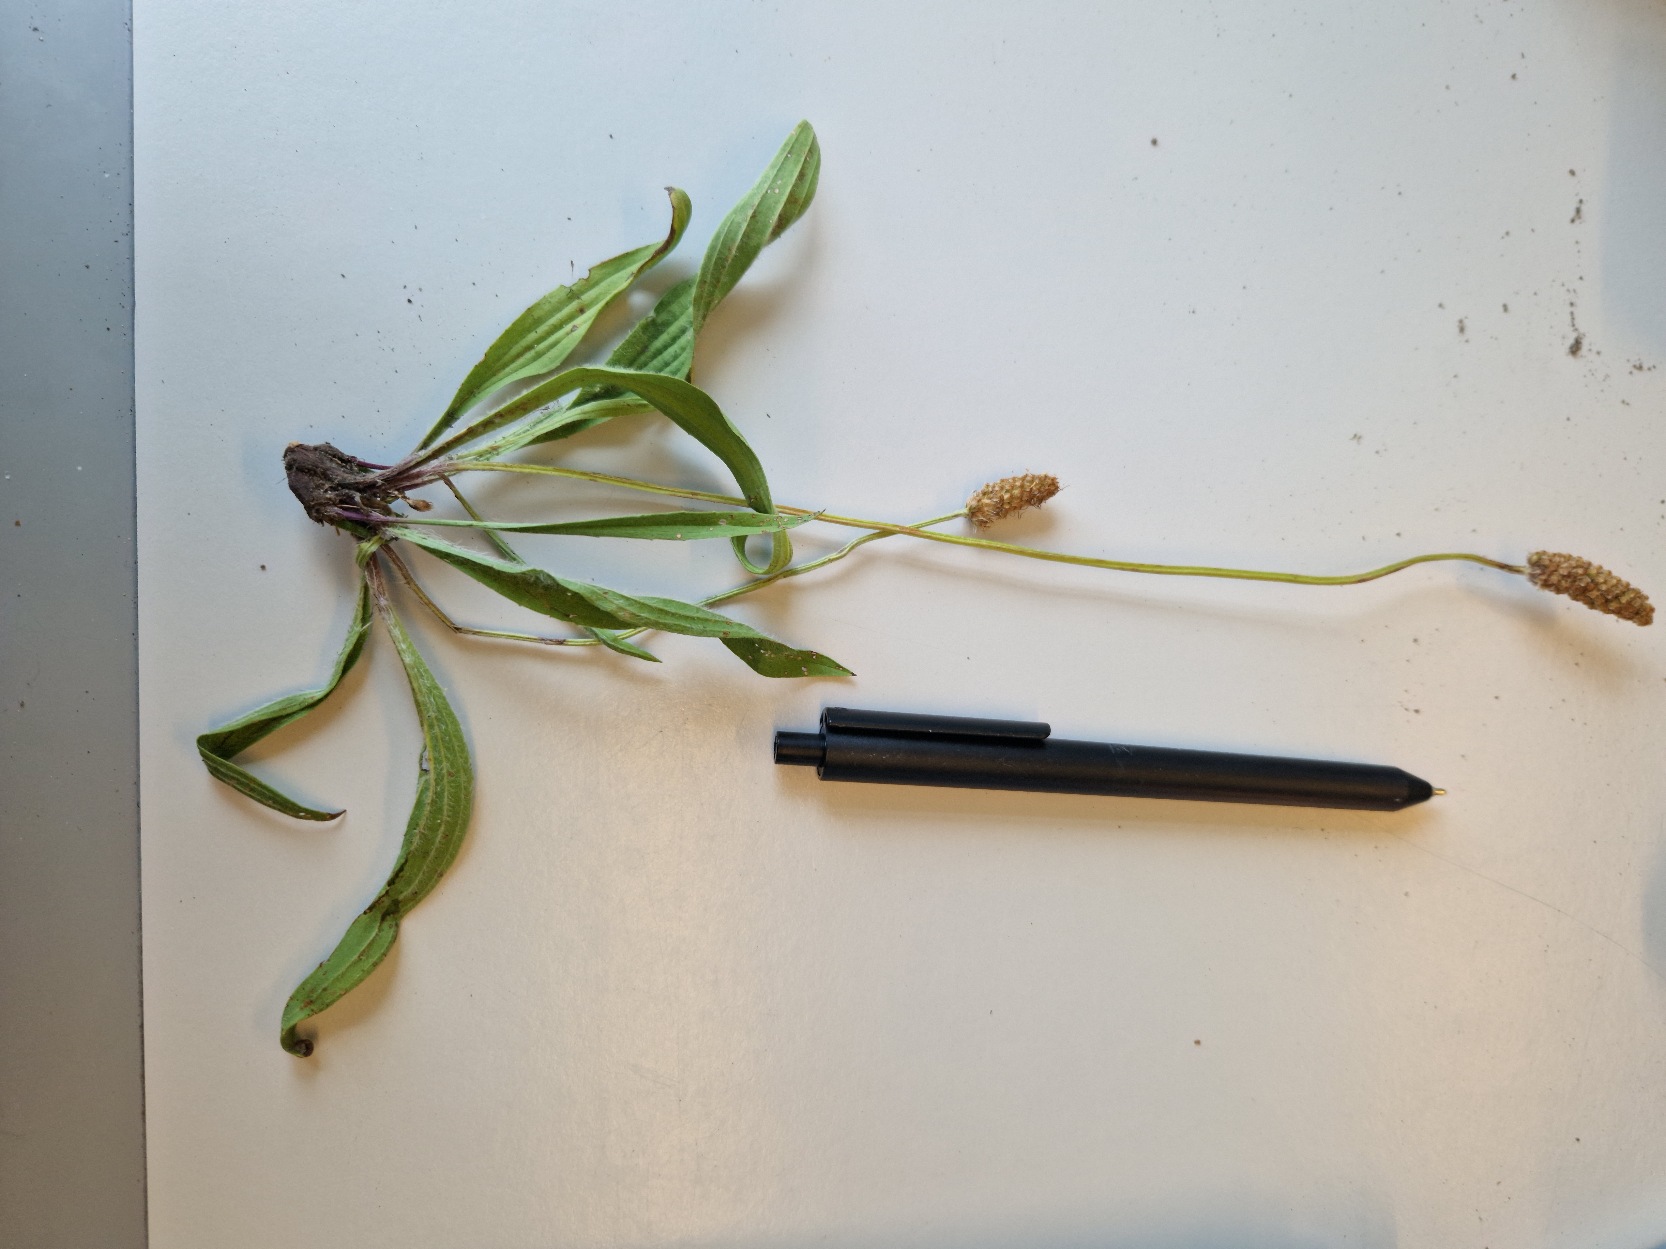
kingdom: Plantae
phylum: Tracheophyta
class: Magnoliopsida
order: Lamiales
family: Plantaginaceae
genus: Plantago
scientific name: Plantago lanceolata
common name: Lancet-vejbred
